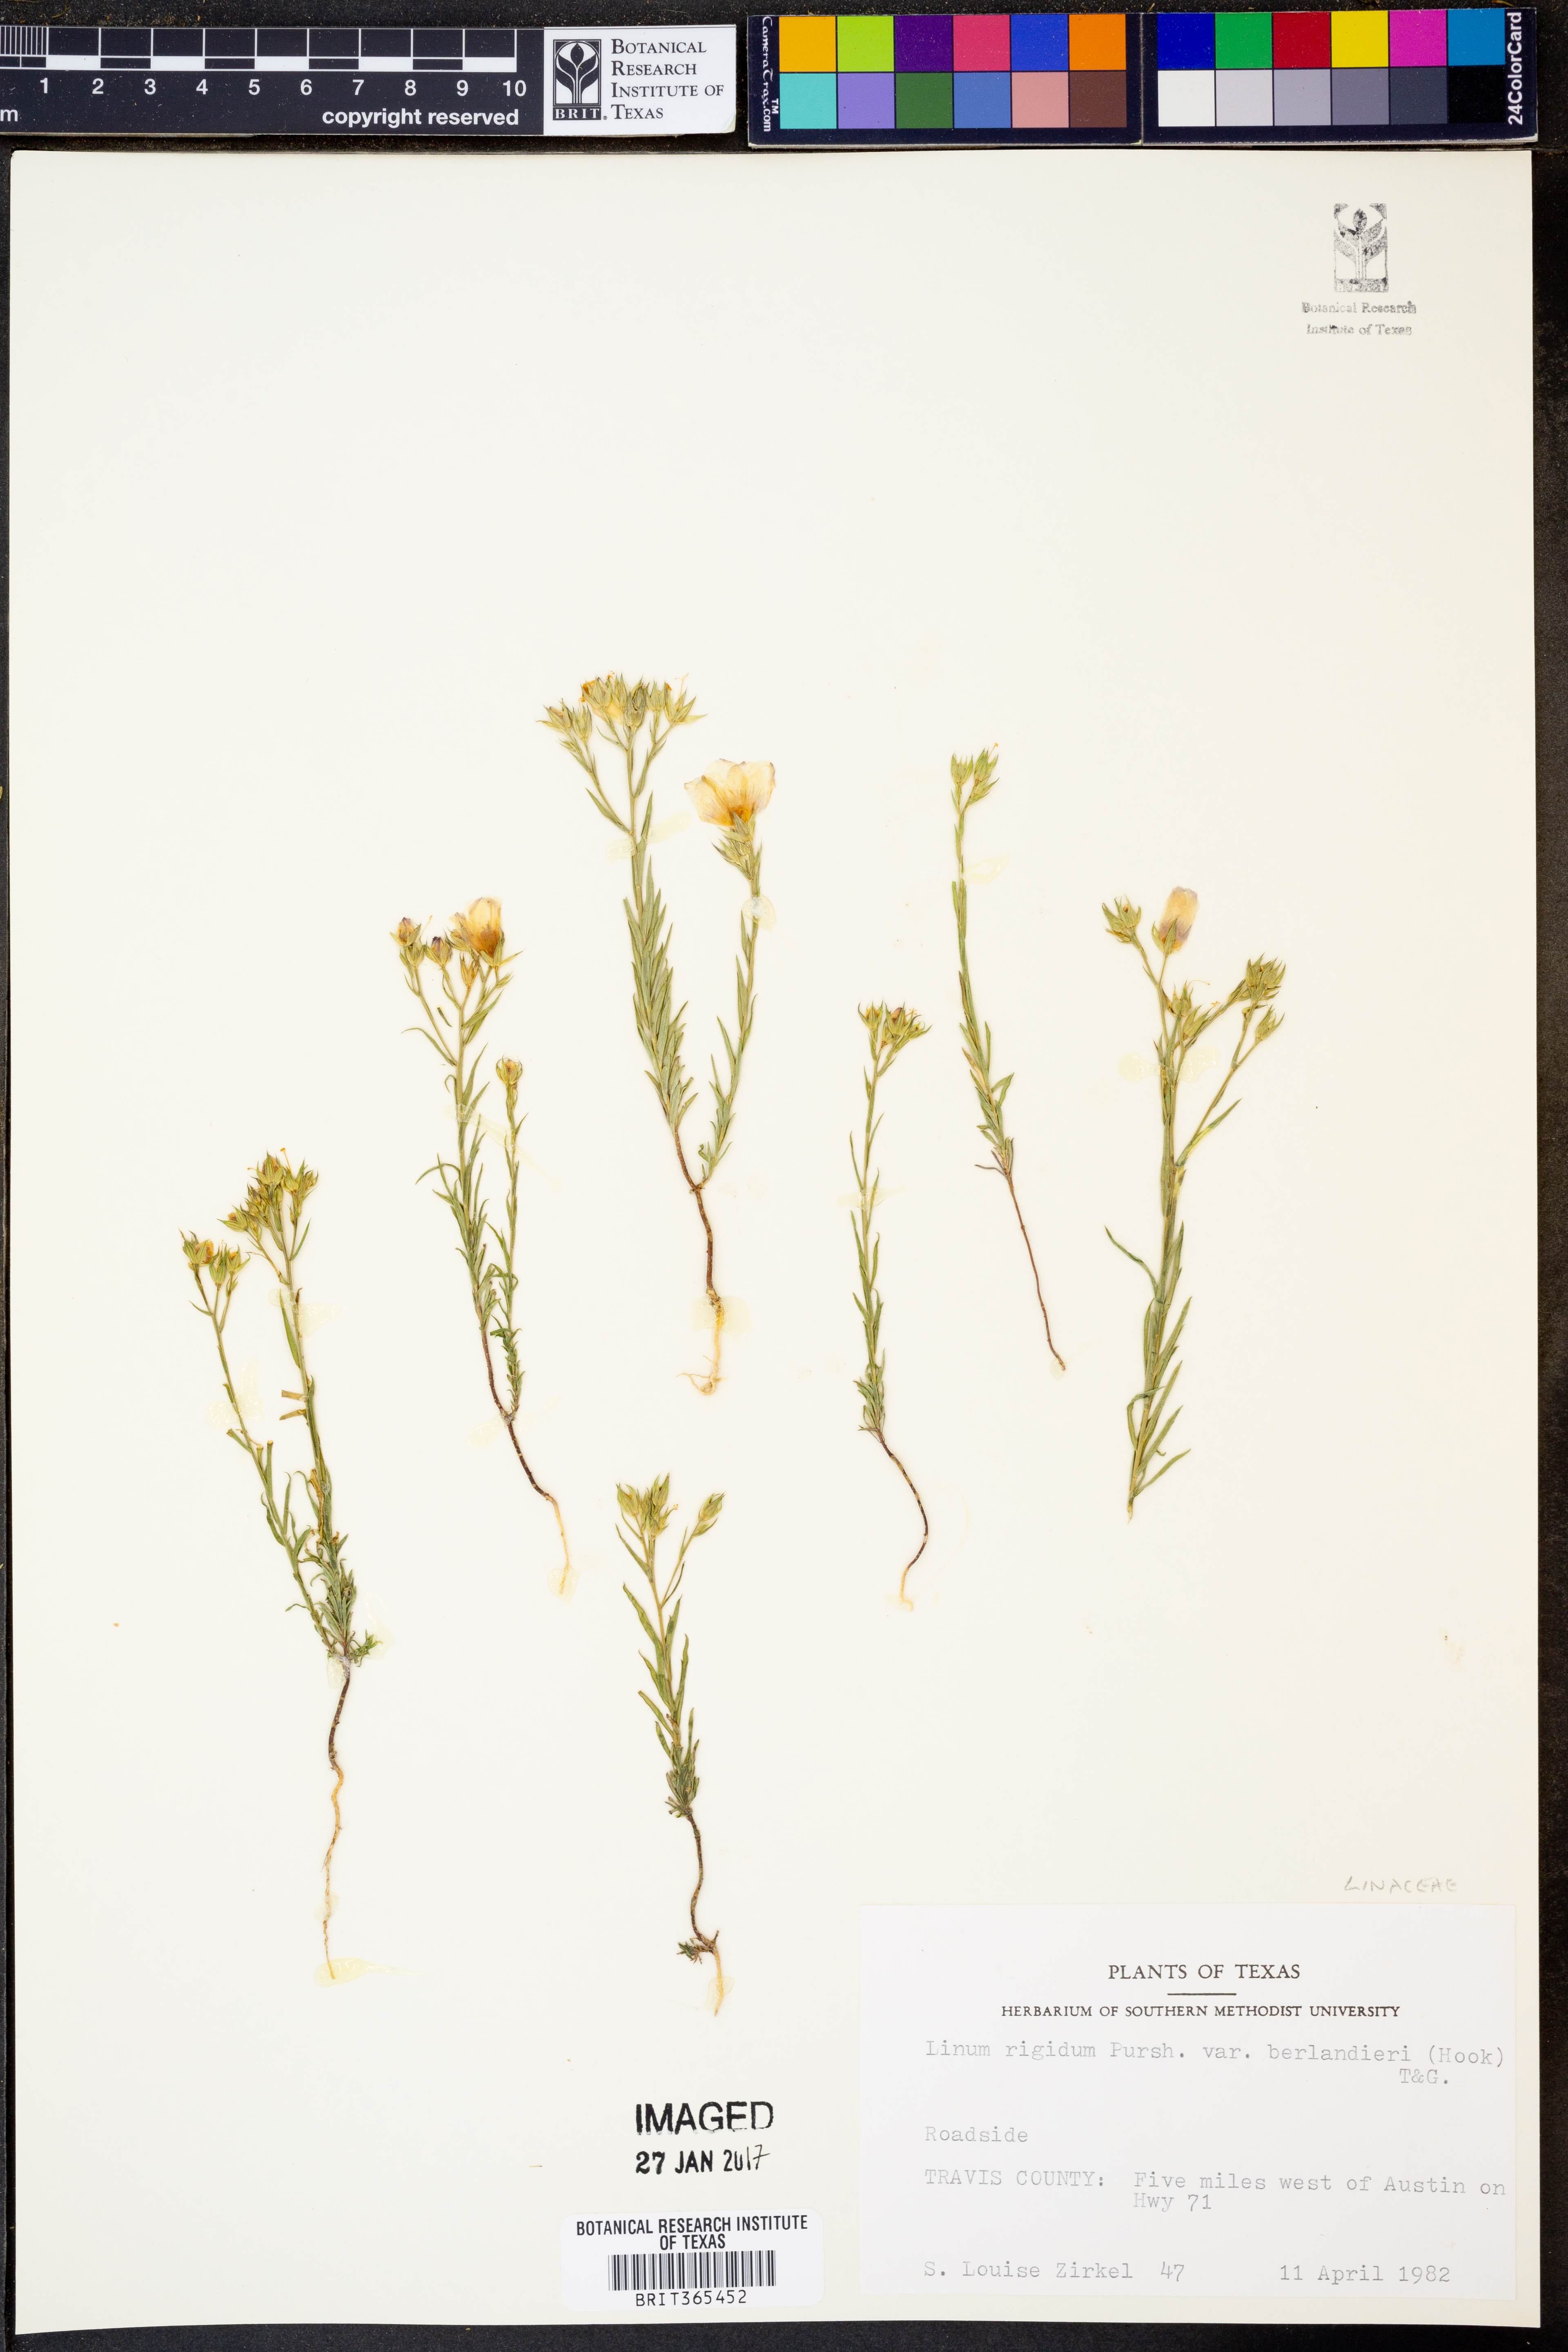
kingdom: Plantae
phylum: Tracheophyta
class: Magnoliopsida
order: Malpighiales
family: Linaceae
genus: Linum
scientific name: Linum berlandieri
